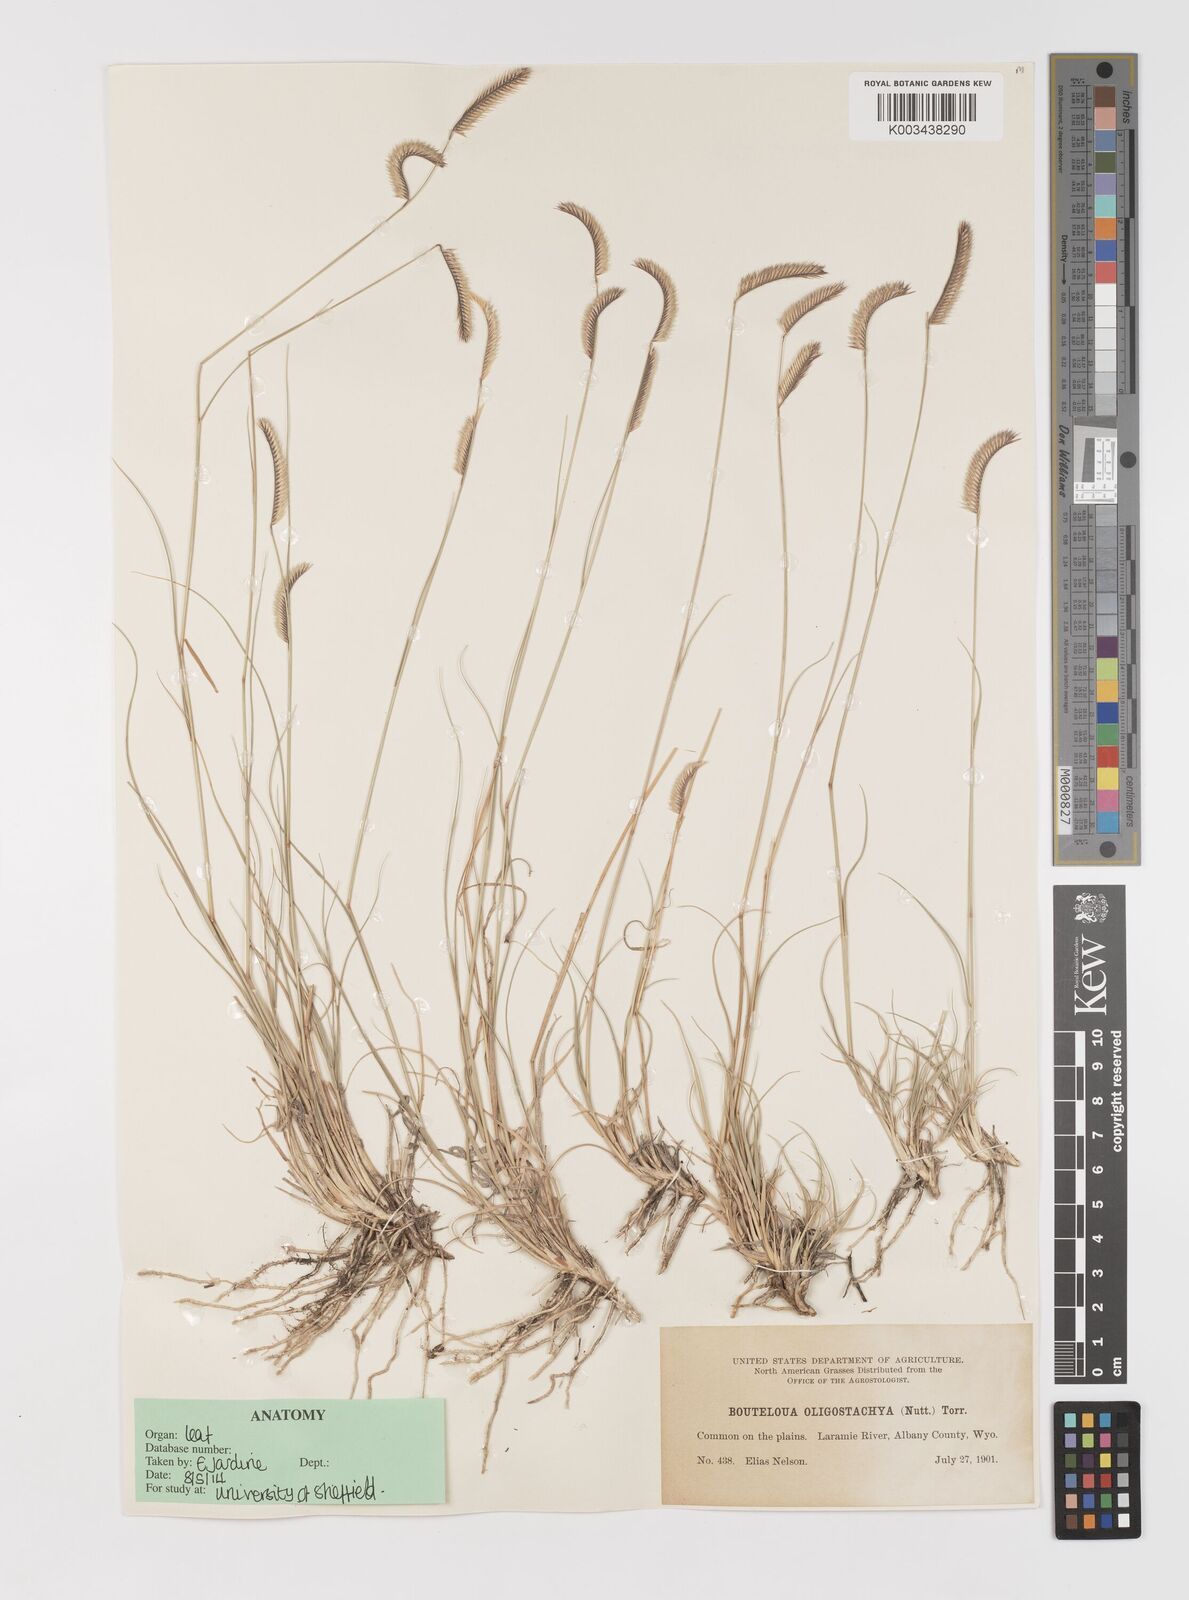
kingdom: Plantae
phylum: Tracheophyta
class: Liliopsida
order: Poales
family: Poaceae
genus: Bouteloua
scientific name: Bouteloua
